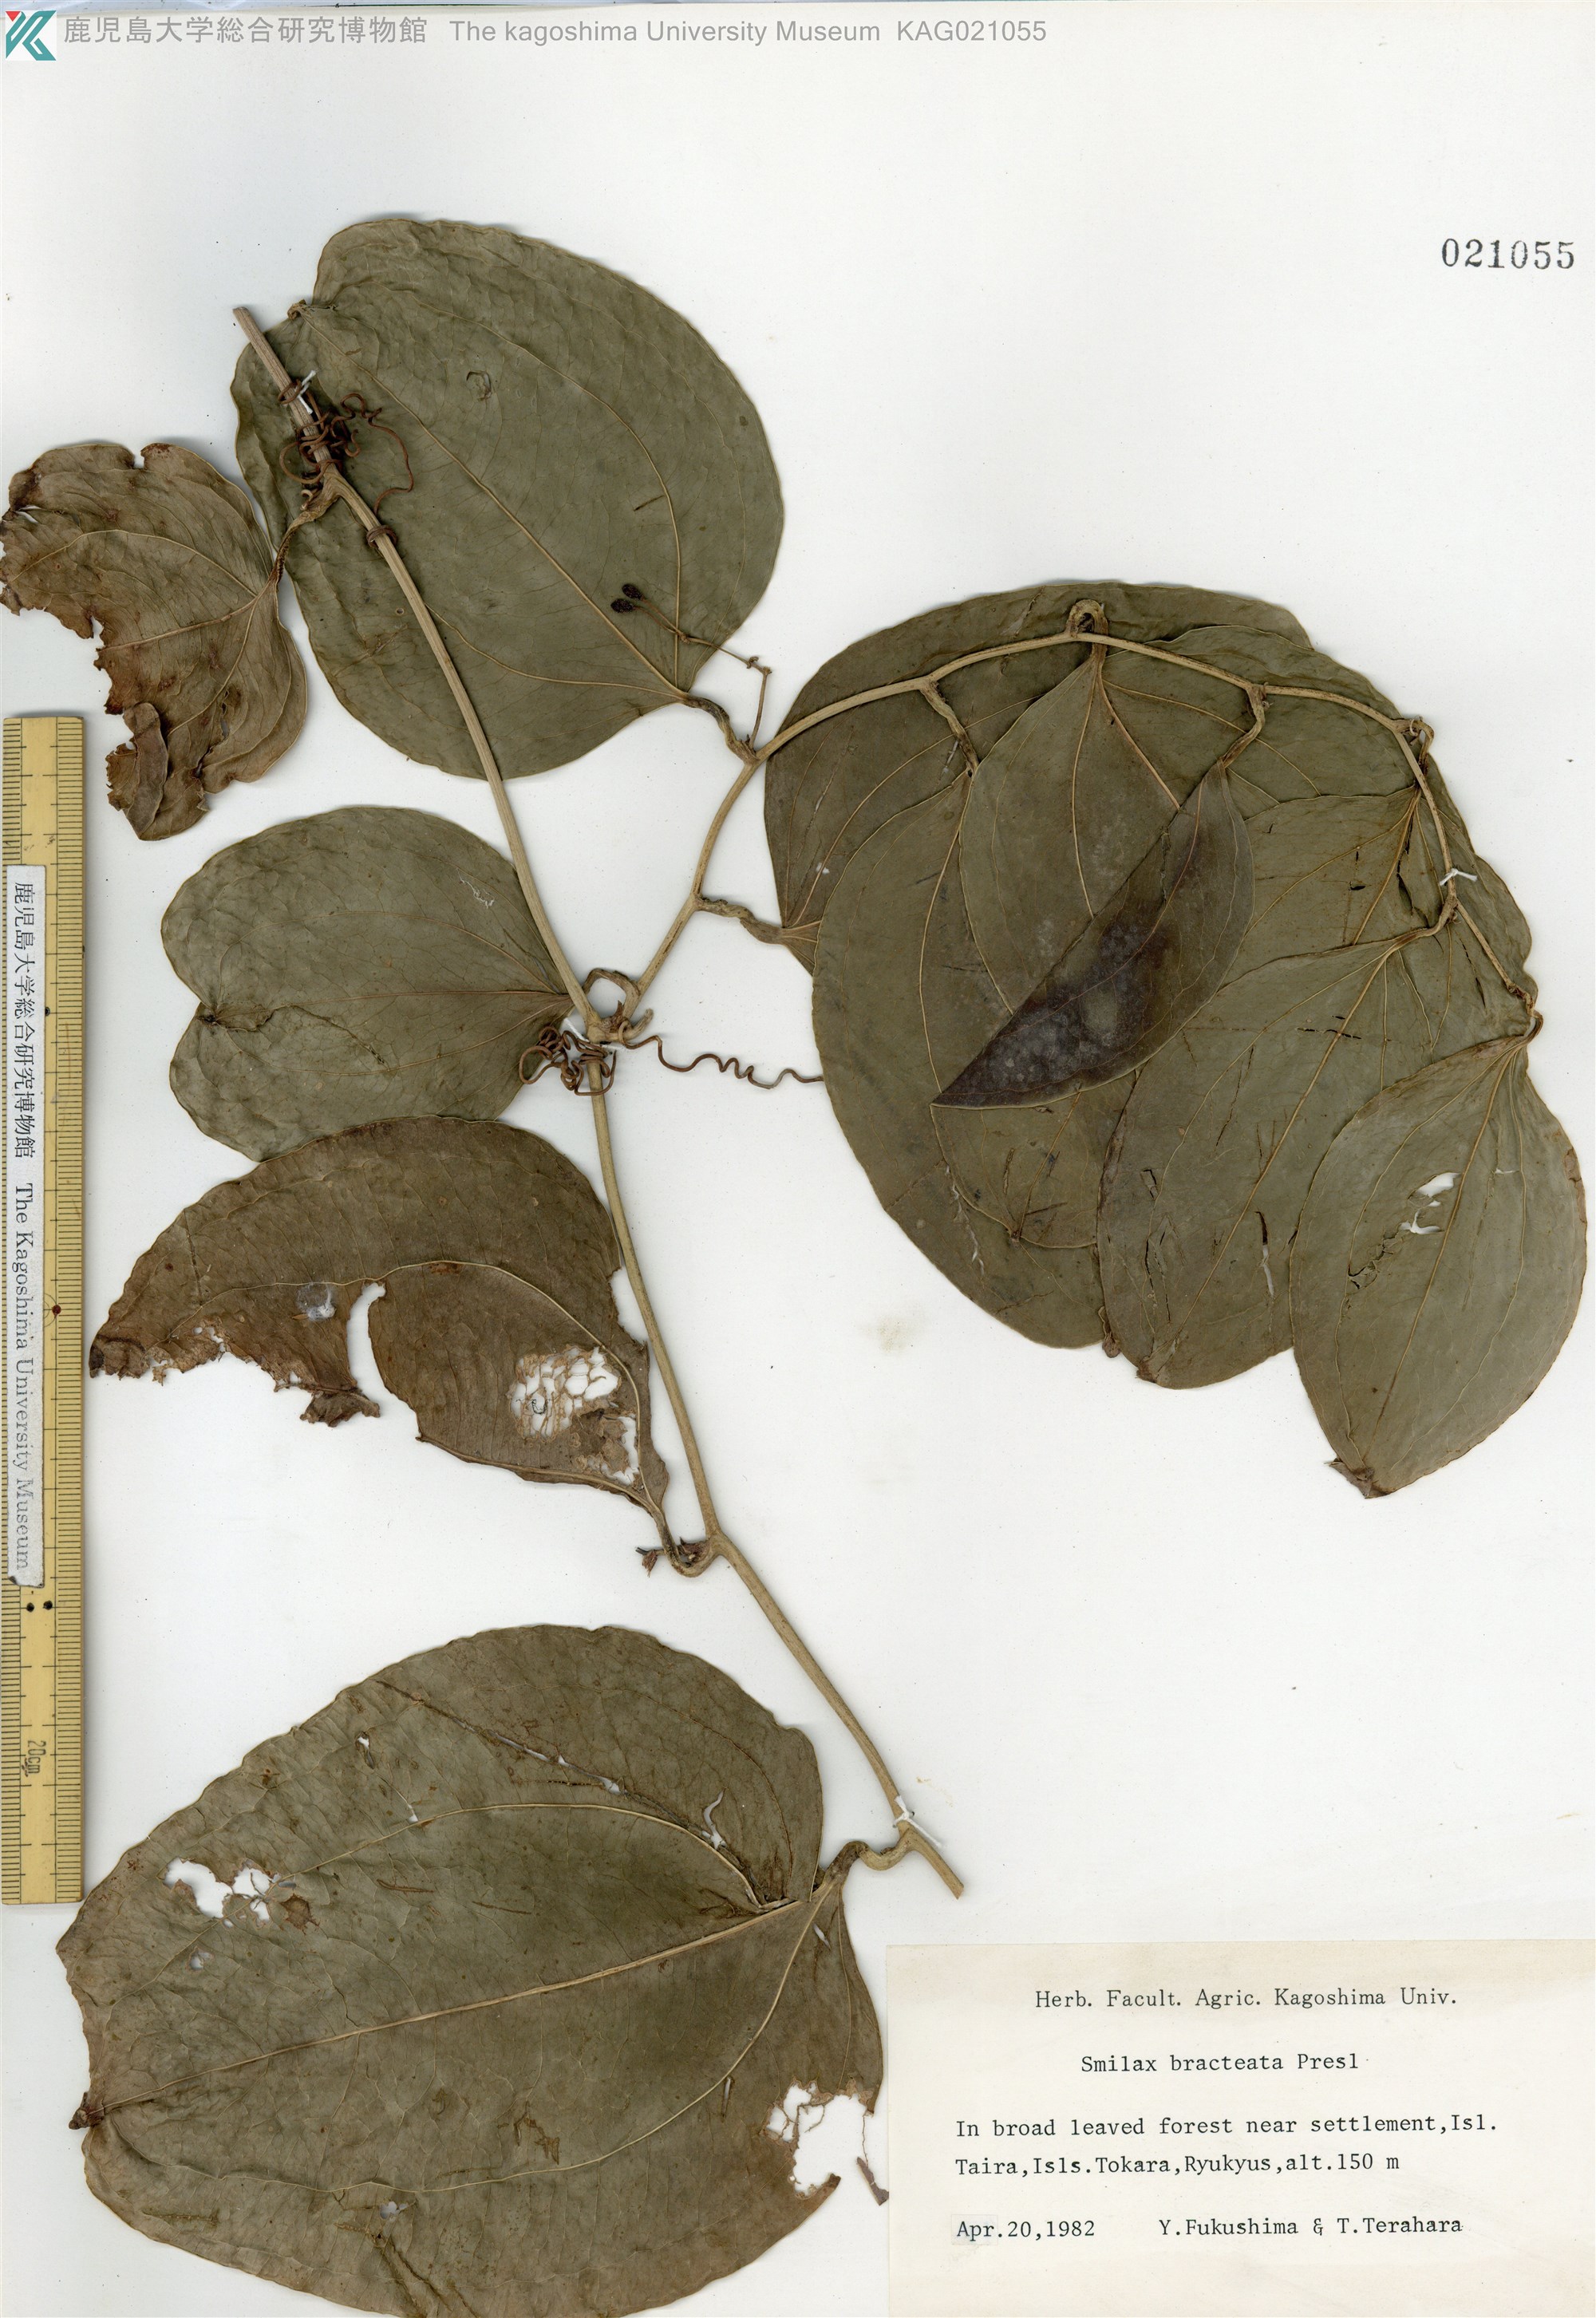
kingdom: Plantae
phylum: Tracheophyta
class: Liliopsida
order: Liliales
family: Smilacaceae
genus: Smilax
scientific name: Smilax bracteata
